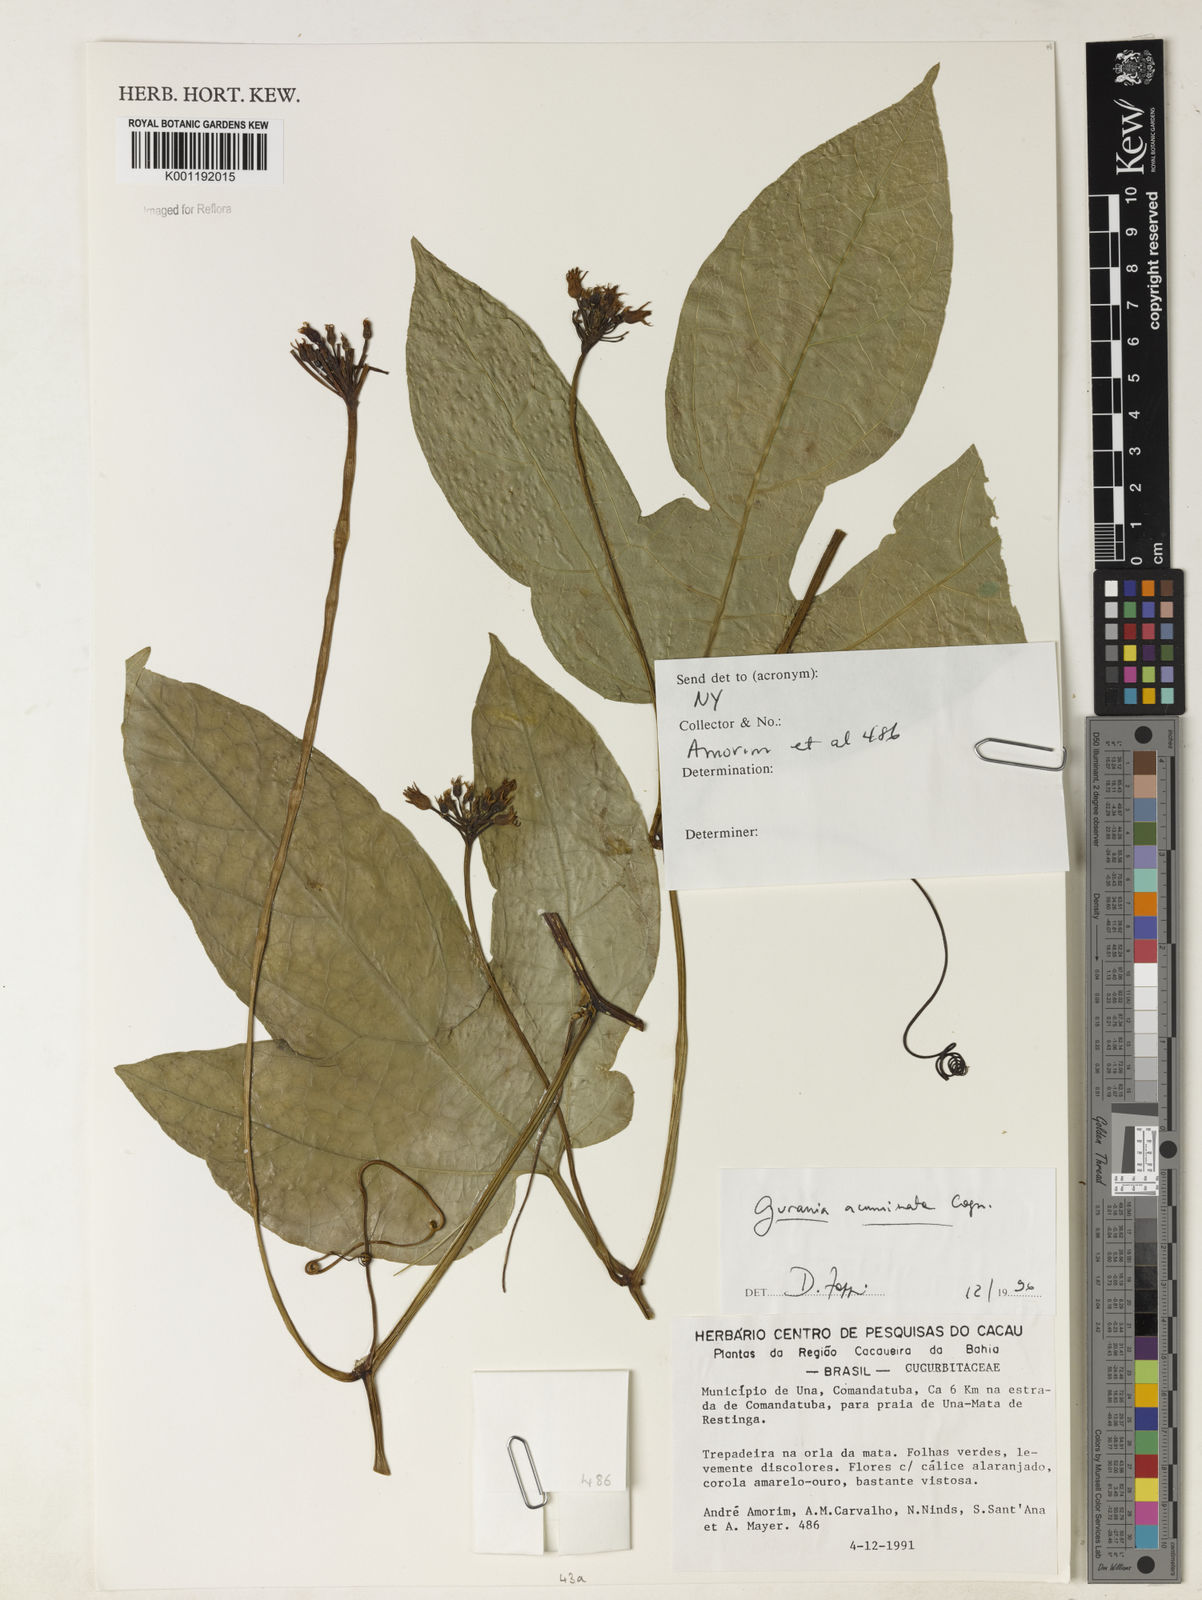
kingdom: Plantae
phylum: Tracheophyta
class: Magnoliopsida
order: Cucurbitales
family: Cucurbitaceae
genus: Gurania
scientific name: Gurania acuminata
